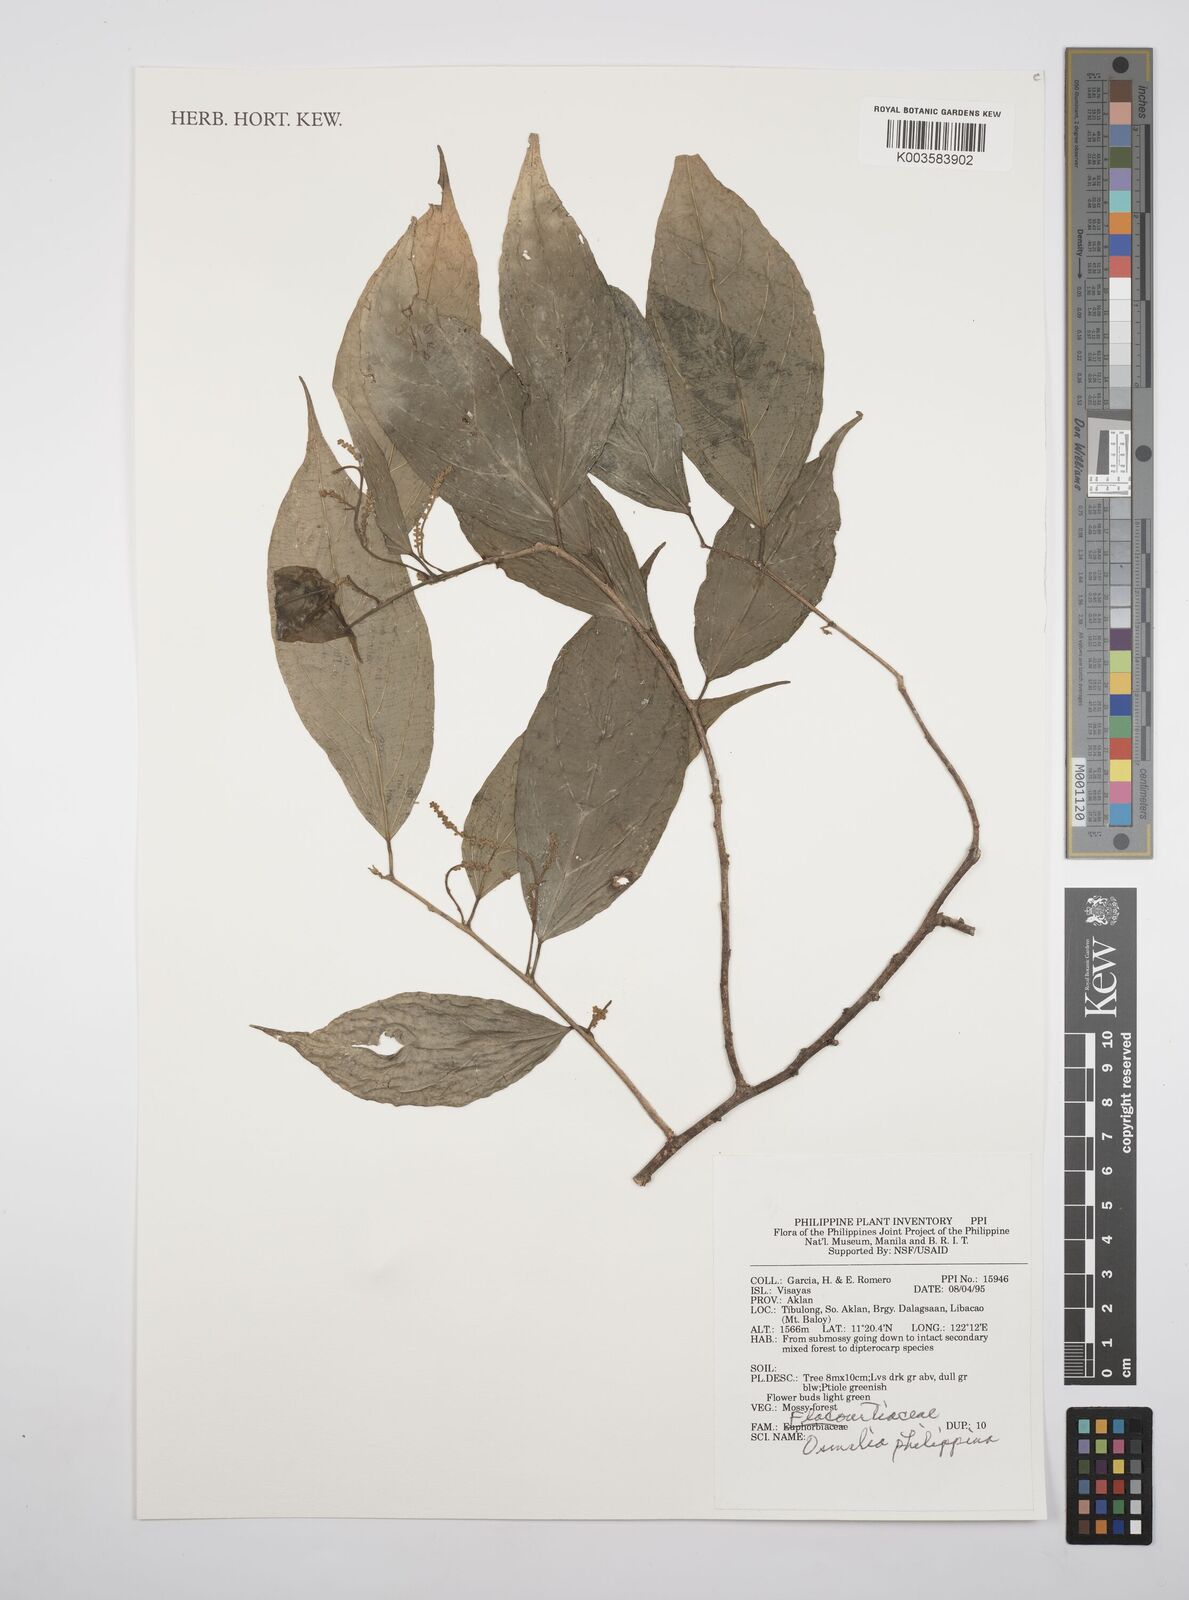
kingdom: Plantae
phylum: Tracheophyta
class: Magnoliopsida
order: Malpighiales
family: Salicaceae
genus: Osmelia
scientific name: Osmelia philippina
